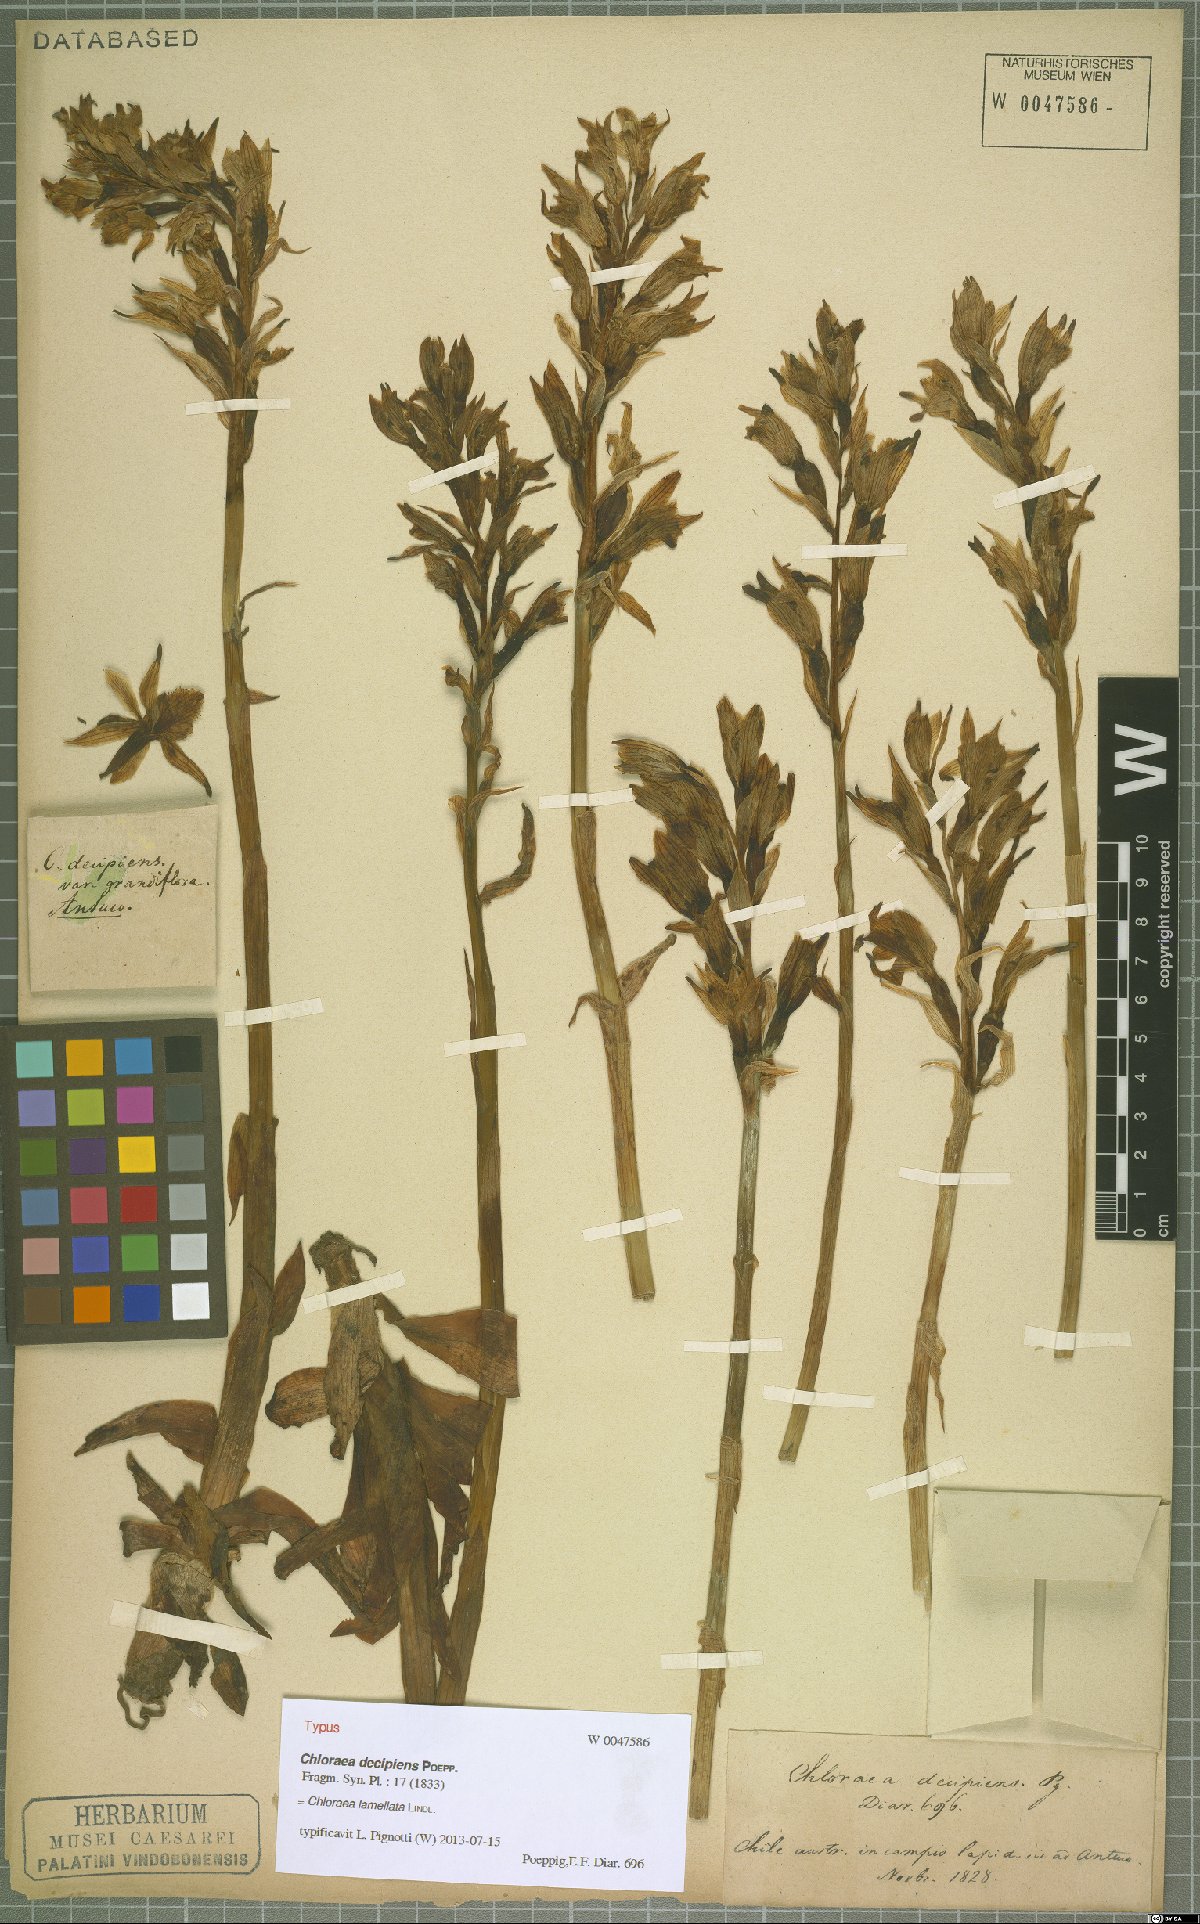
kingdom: Plantae
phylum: Tracheophyta
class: Liliopsida
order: Asparagales
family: Orchidaceae
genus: Chloraea
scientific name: Chloraea lamellata
